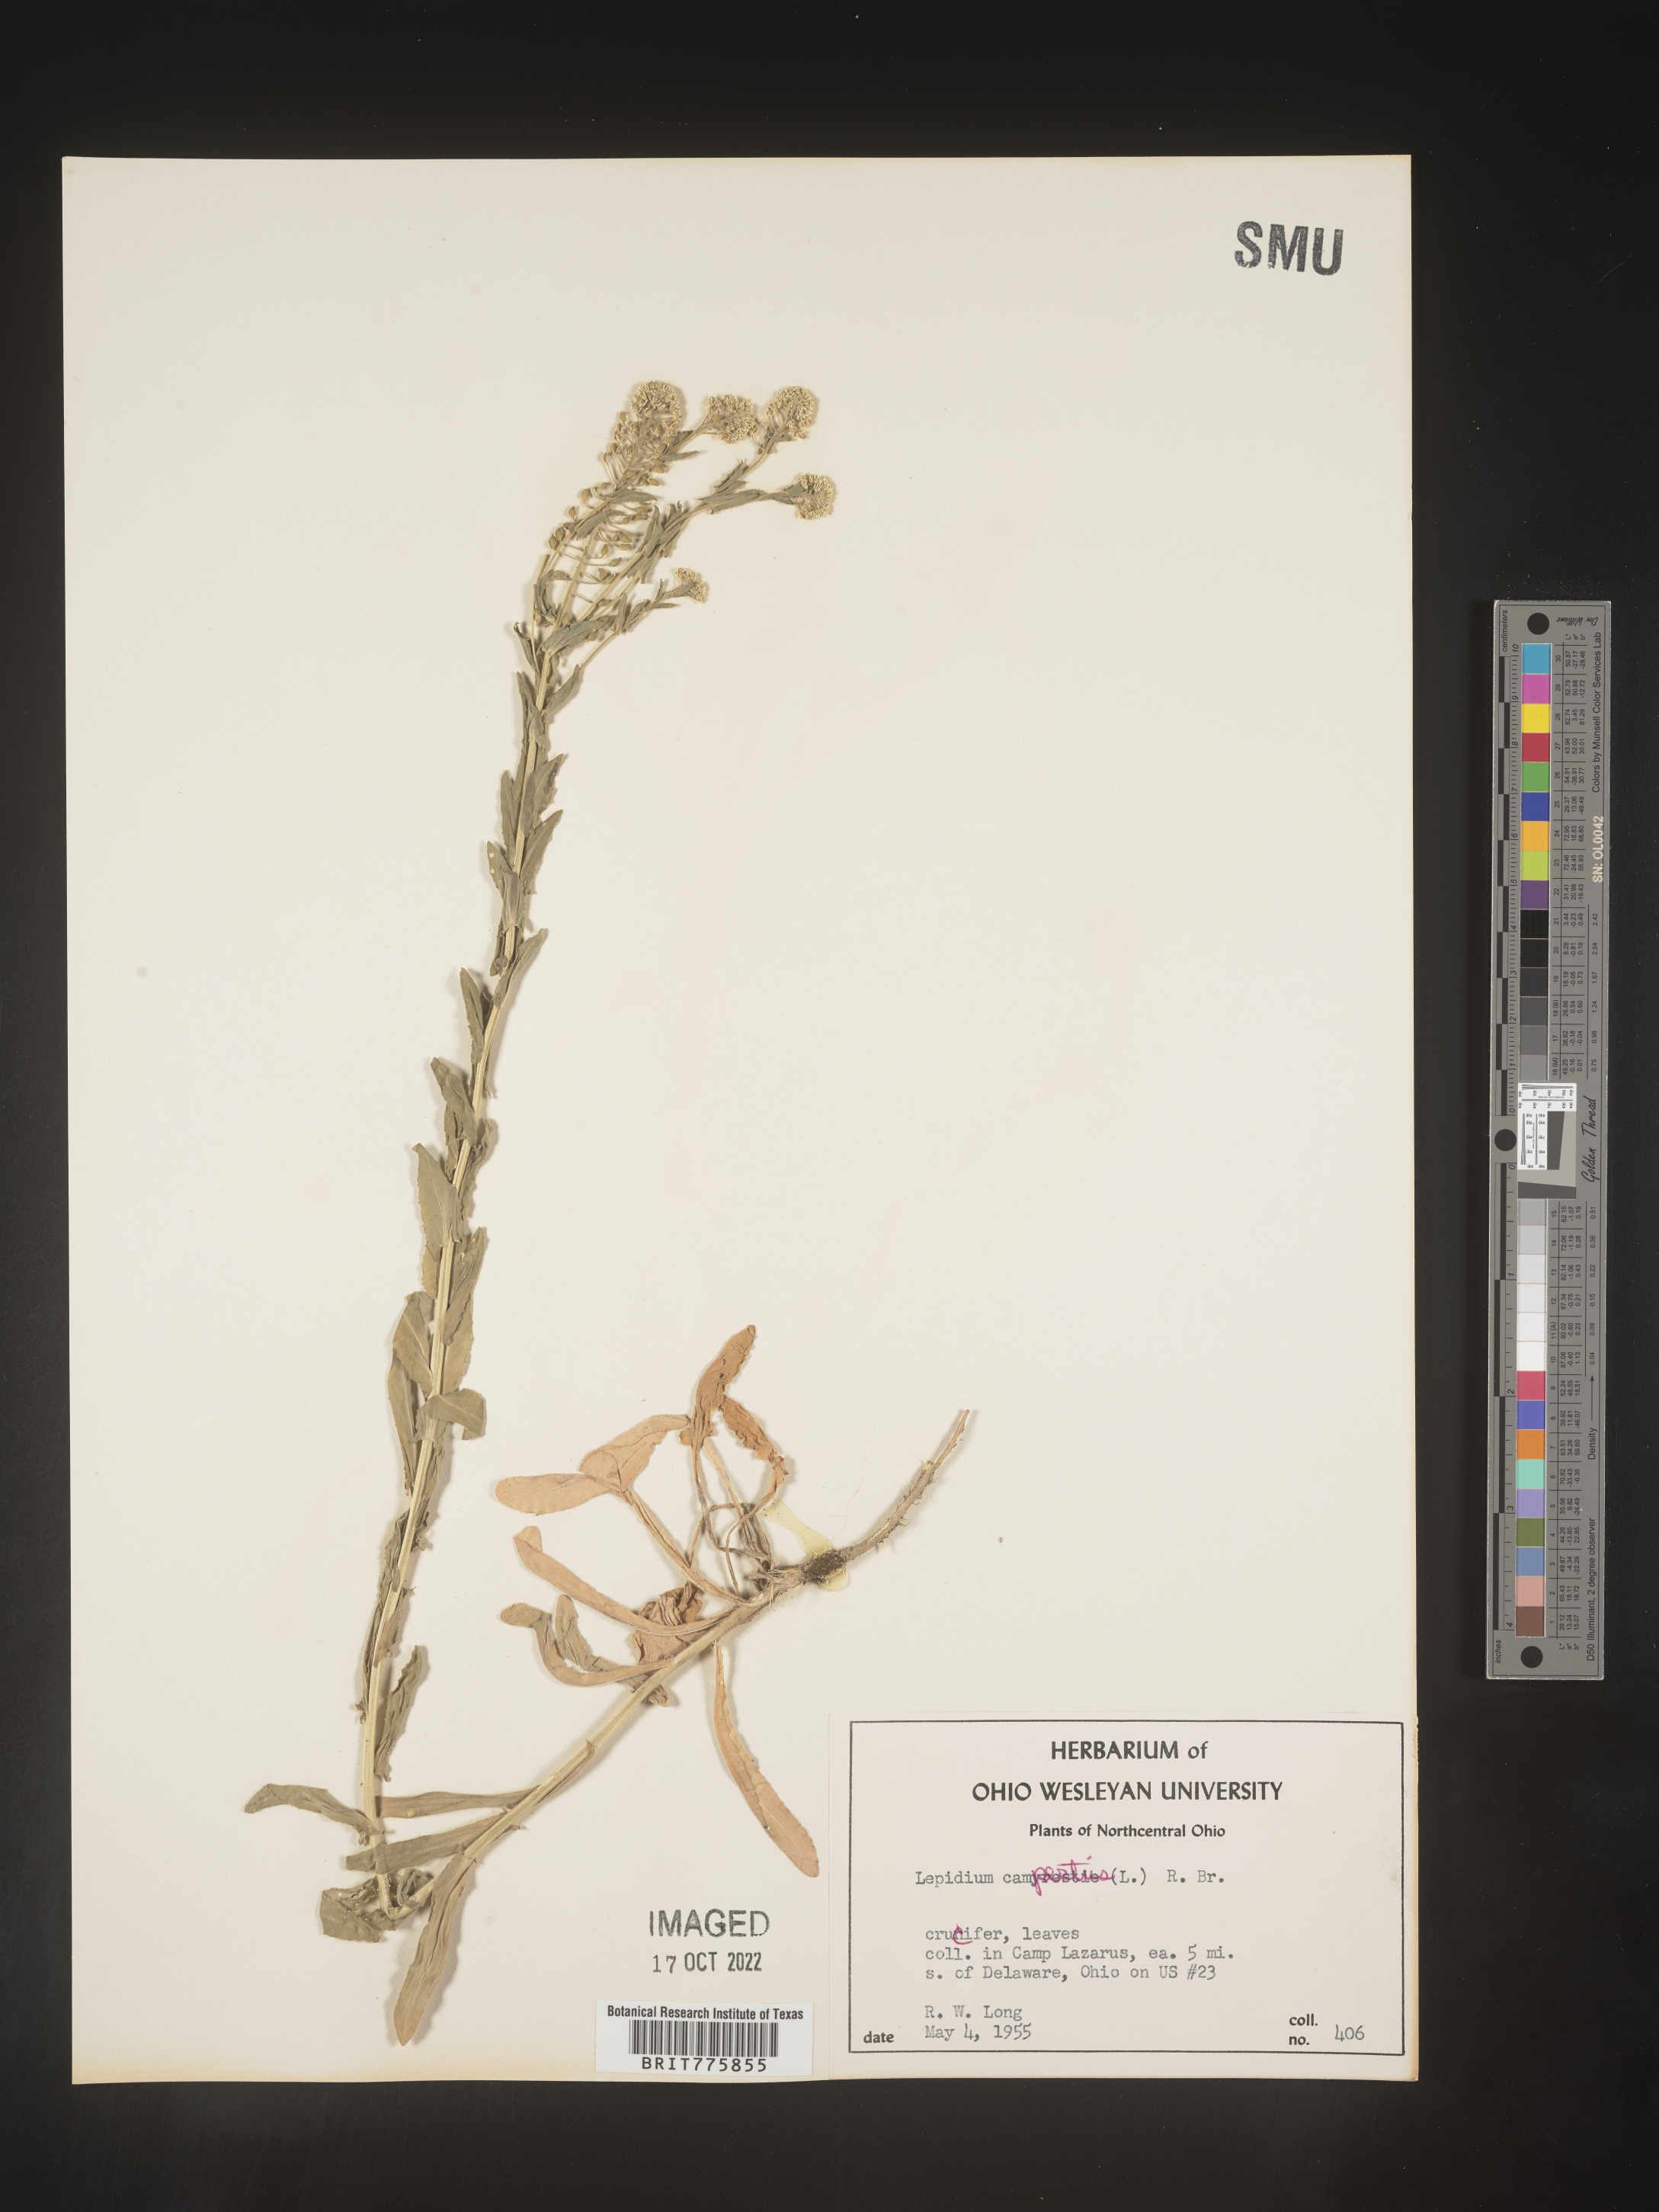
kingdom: Plantae
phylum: Tracheophyta
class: Magnoliopsida
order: Brassicales
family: Brassicaceae
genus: Lepidium
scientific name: Lepidium campestre
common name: Field pepperwort
